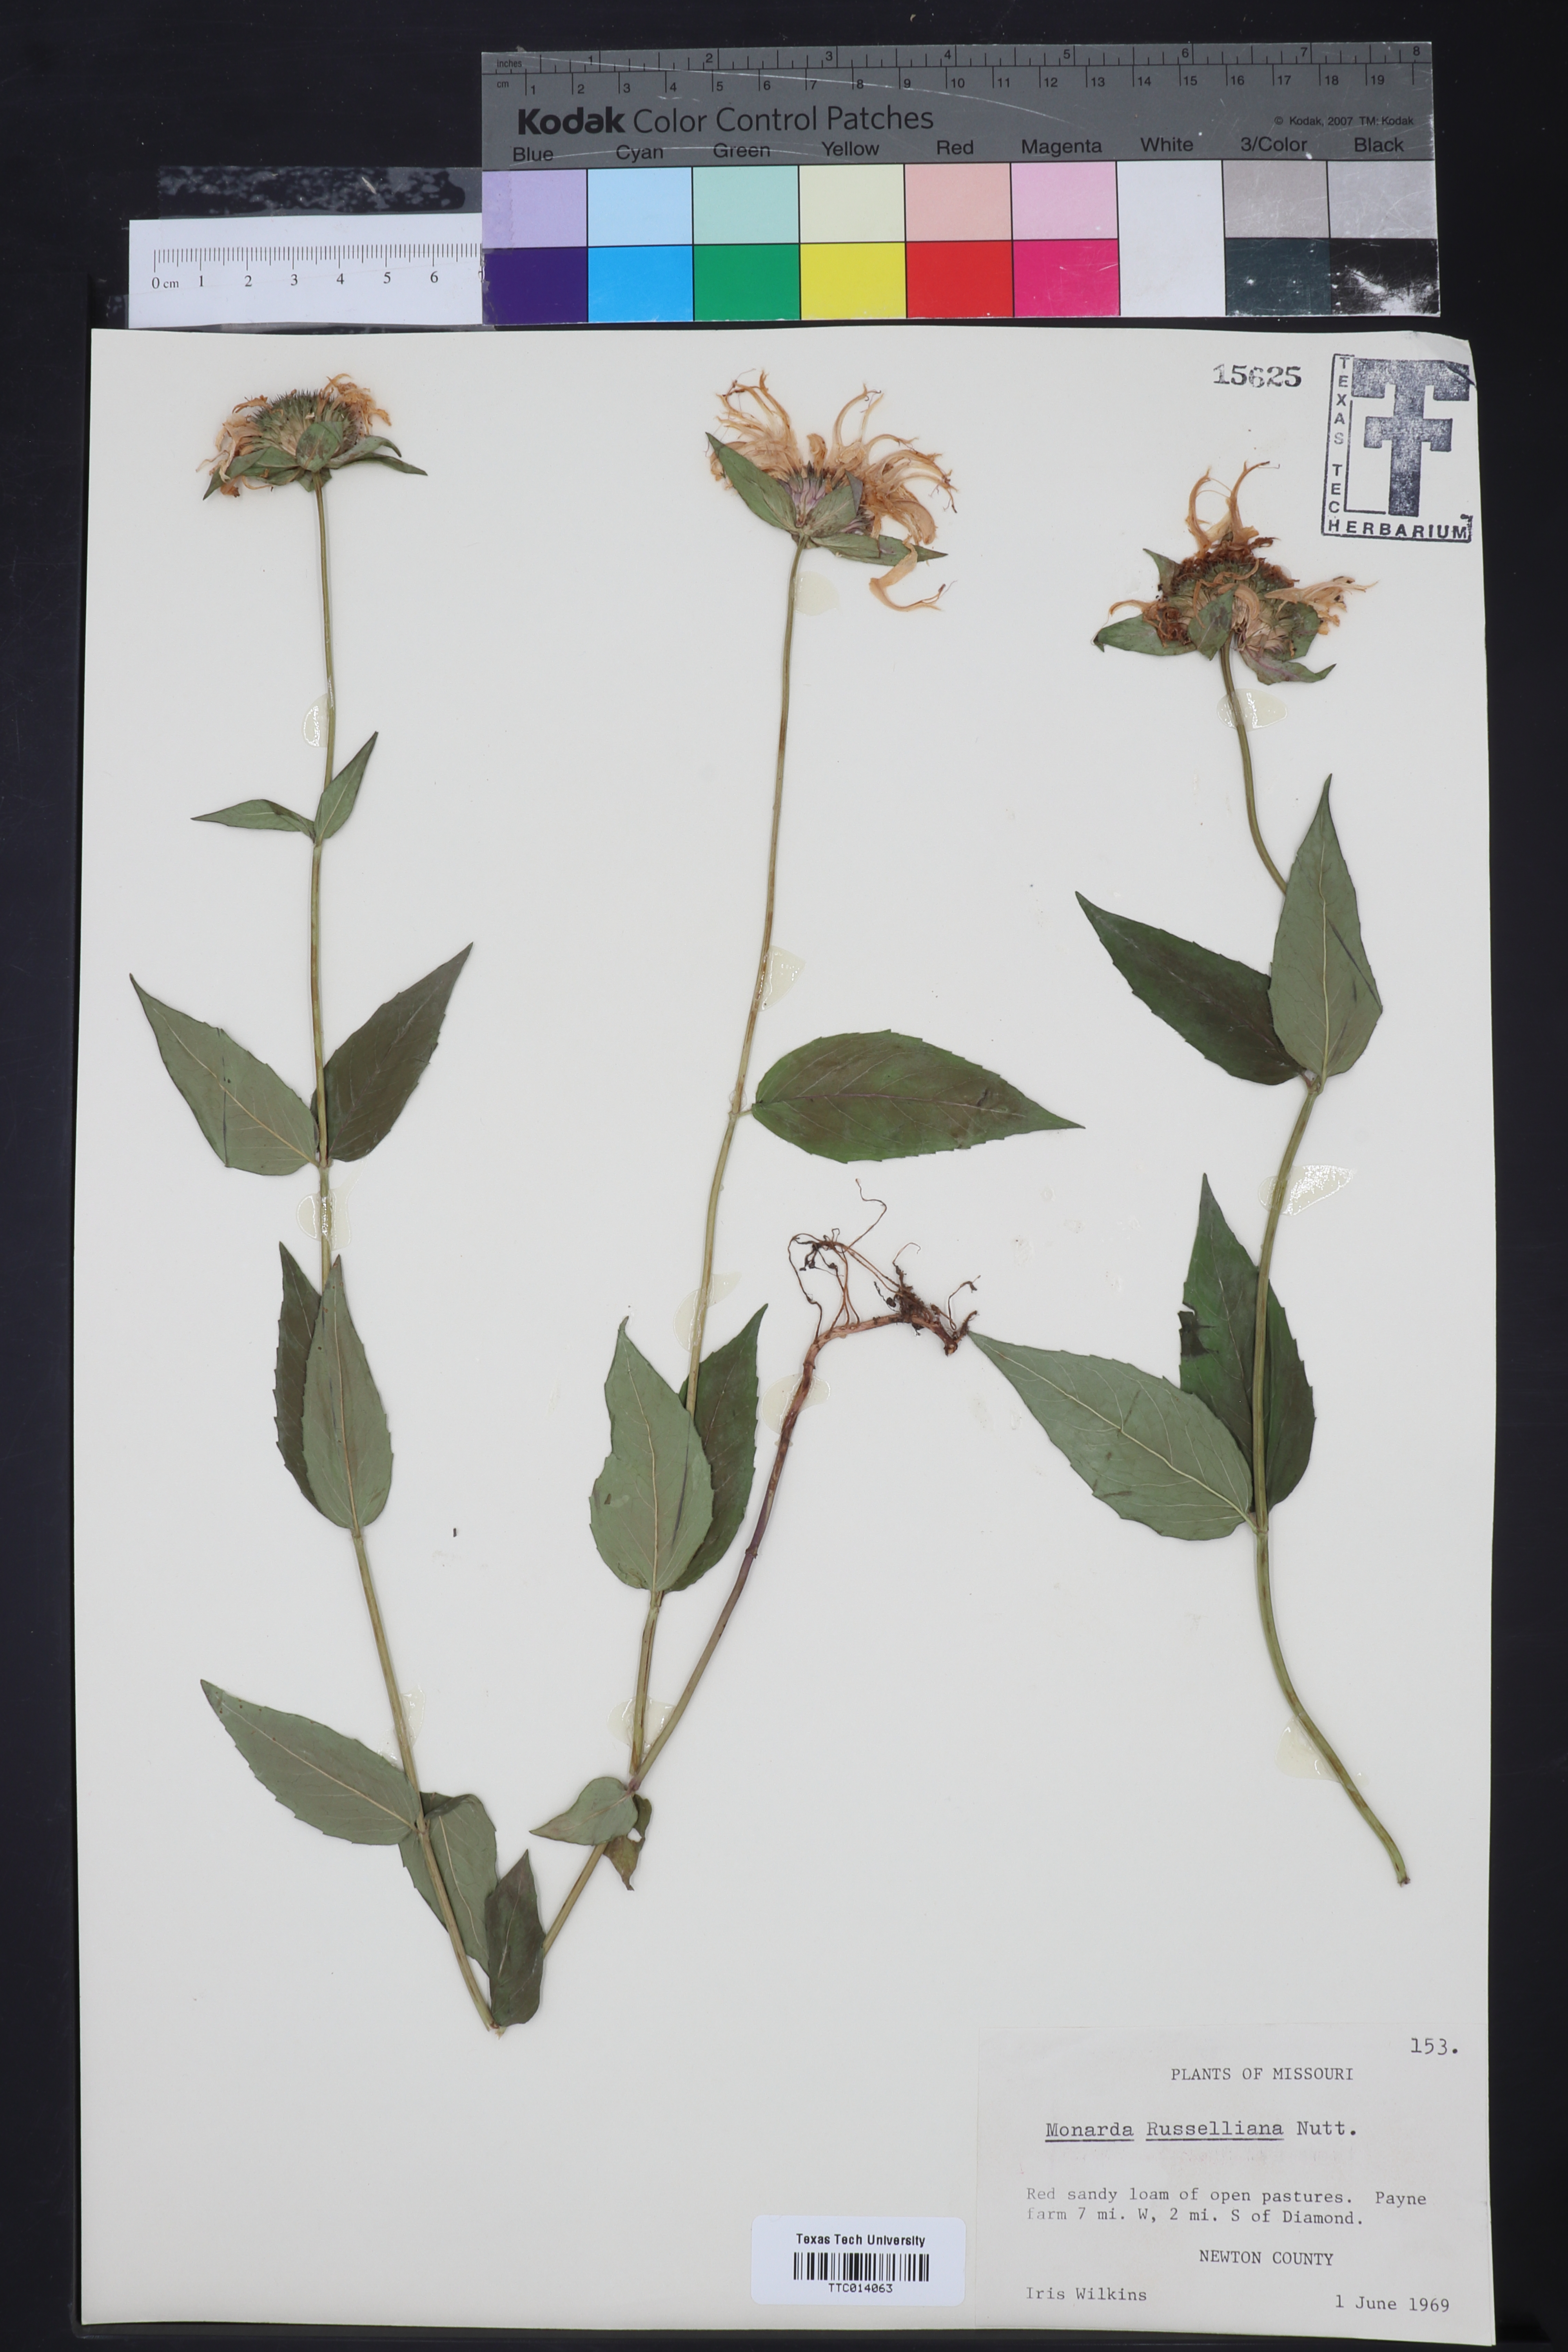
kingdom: Plantae
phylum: Tracheophyta
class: Magnoliopsida
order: Lamiales
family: Lamiaceae
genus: Monarda
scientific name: Monarda russeliana
